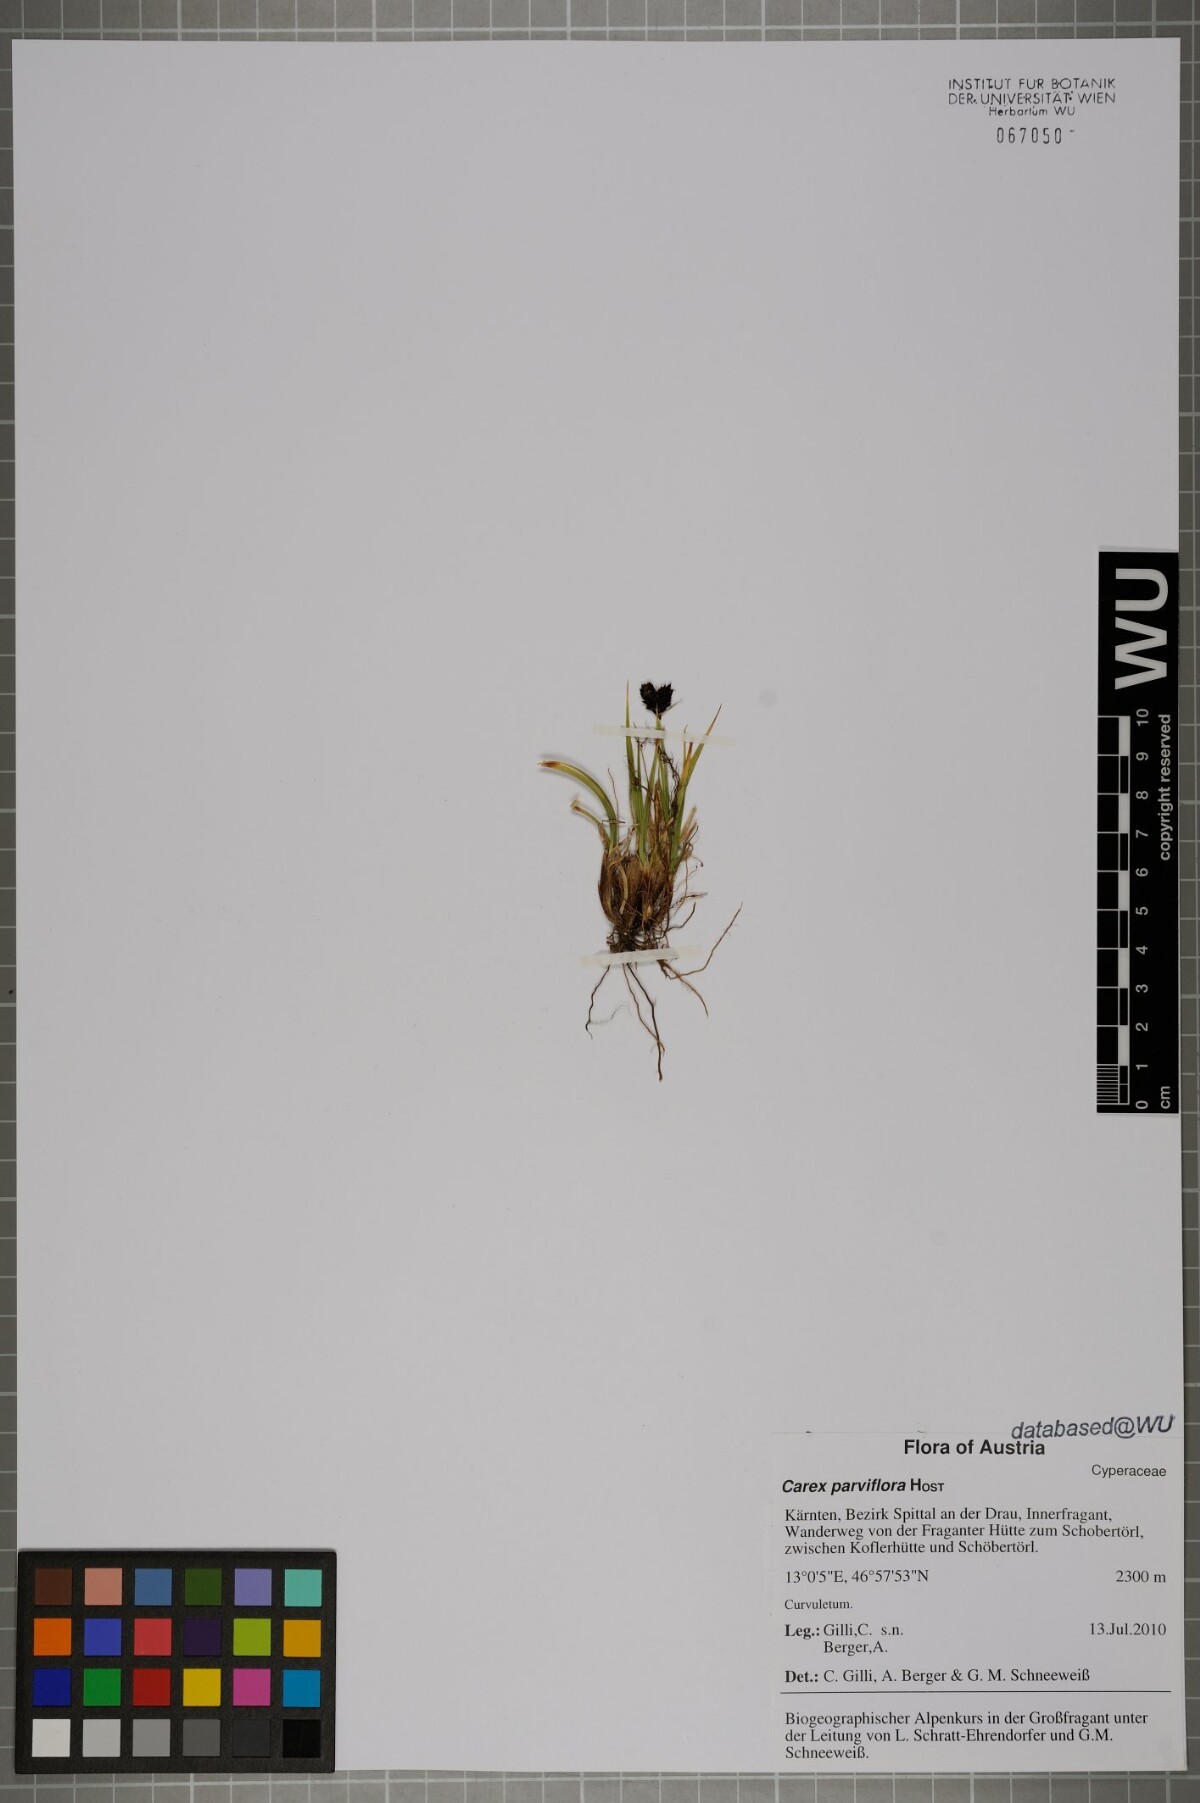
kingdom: Plantae
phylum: Tracheophyta
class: Liliopsida
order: Poales
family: Cyperaceae
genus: Carex
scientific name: Carex parviflora
